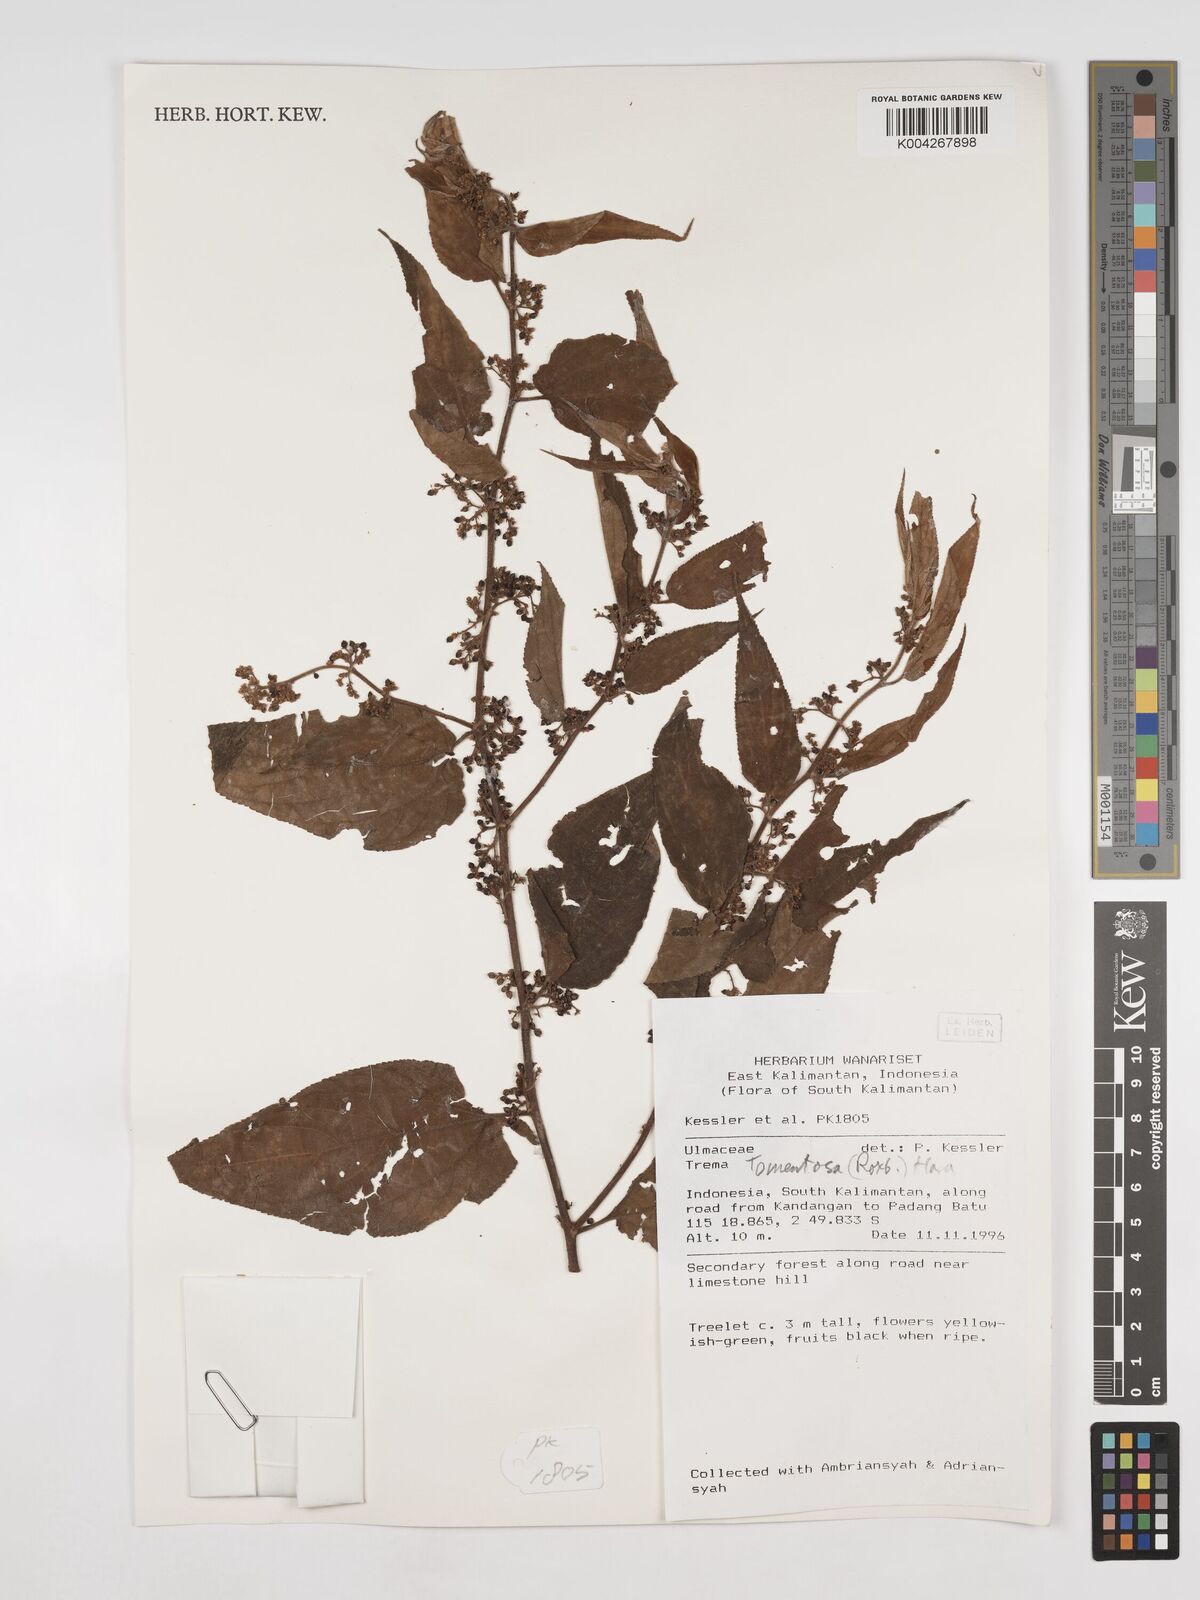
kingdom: Plantae
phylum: Tracheophyta
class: Magnoliopsida
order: Rosales
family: Cannabaceae
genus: Trema
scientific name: Trema tomentosum
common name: Peach-leaf-poisonbush
